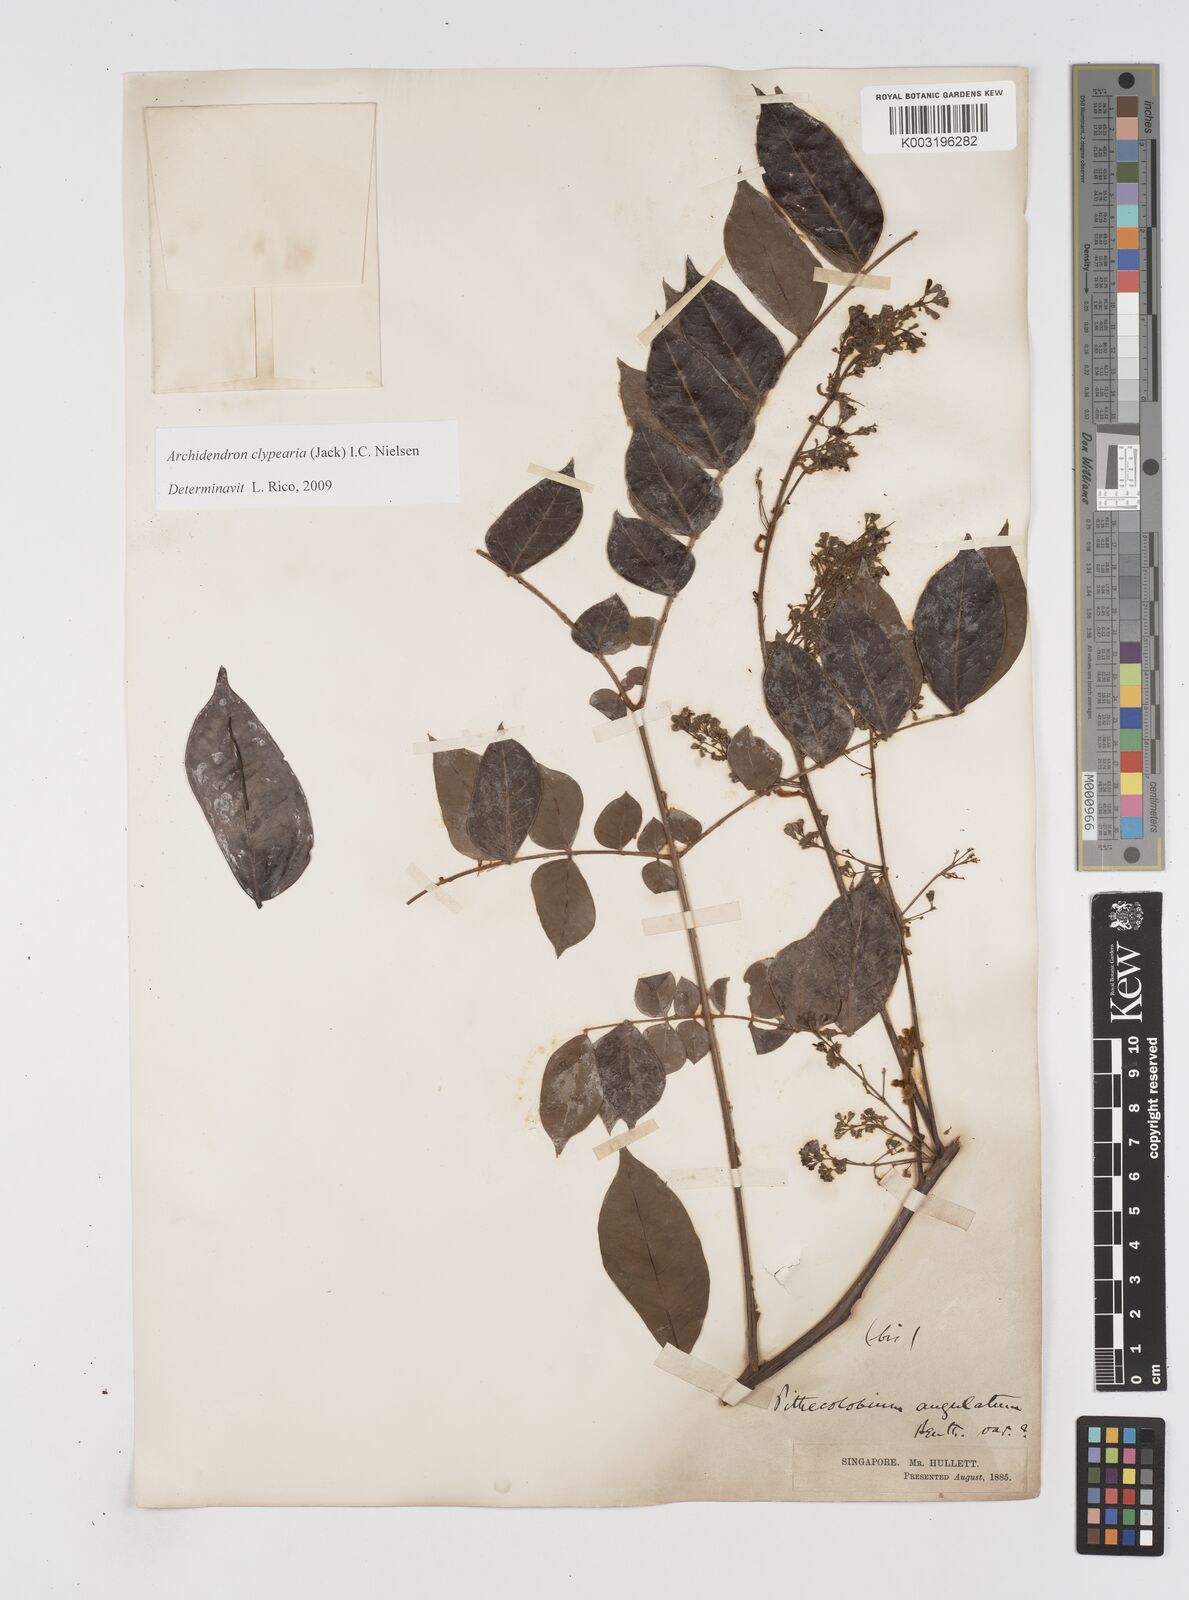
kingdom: Plantae
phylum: Tracheophyta
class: Magnoliopsida
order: Fabales
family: Fabaceae
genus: Archidendron
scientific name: Archidendron clypearia
